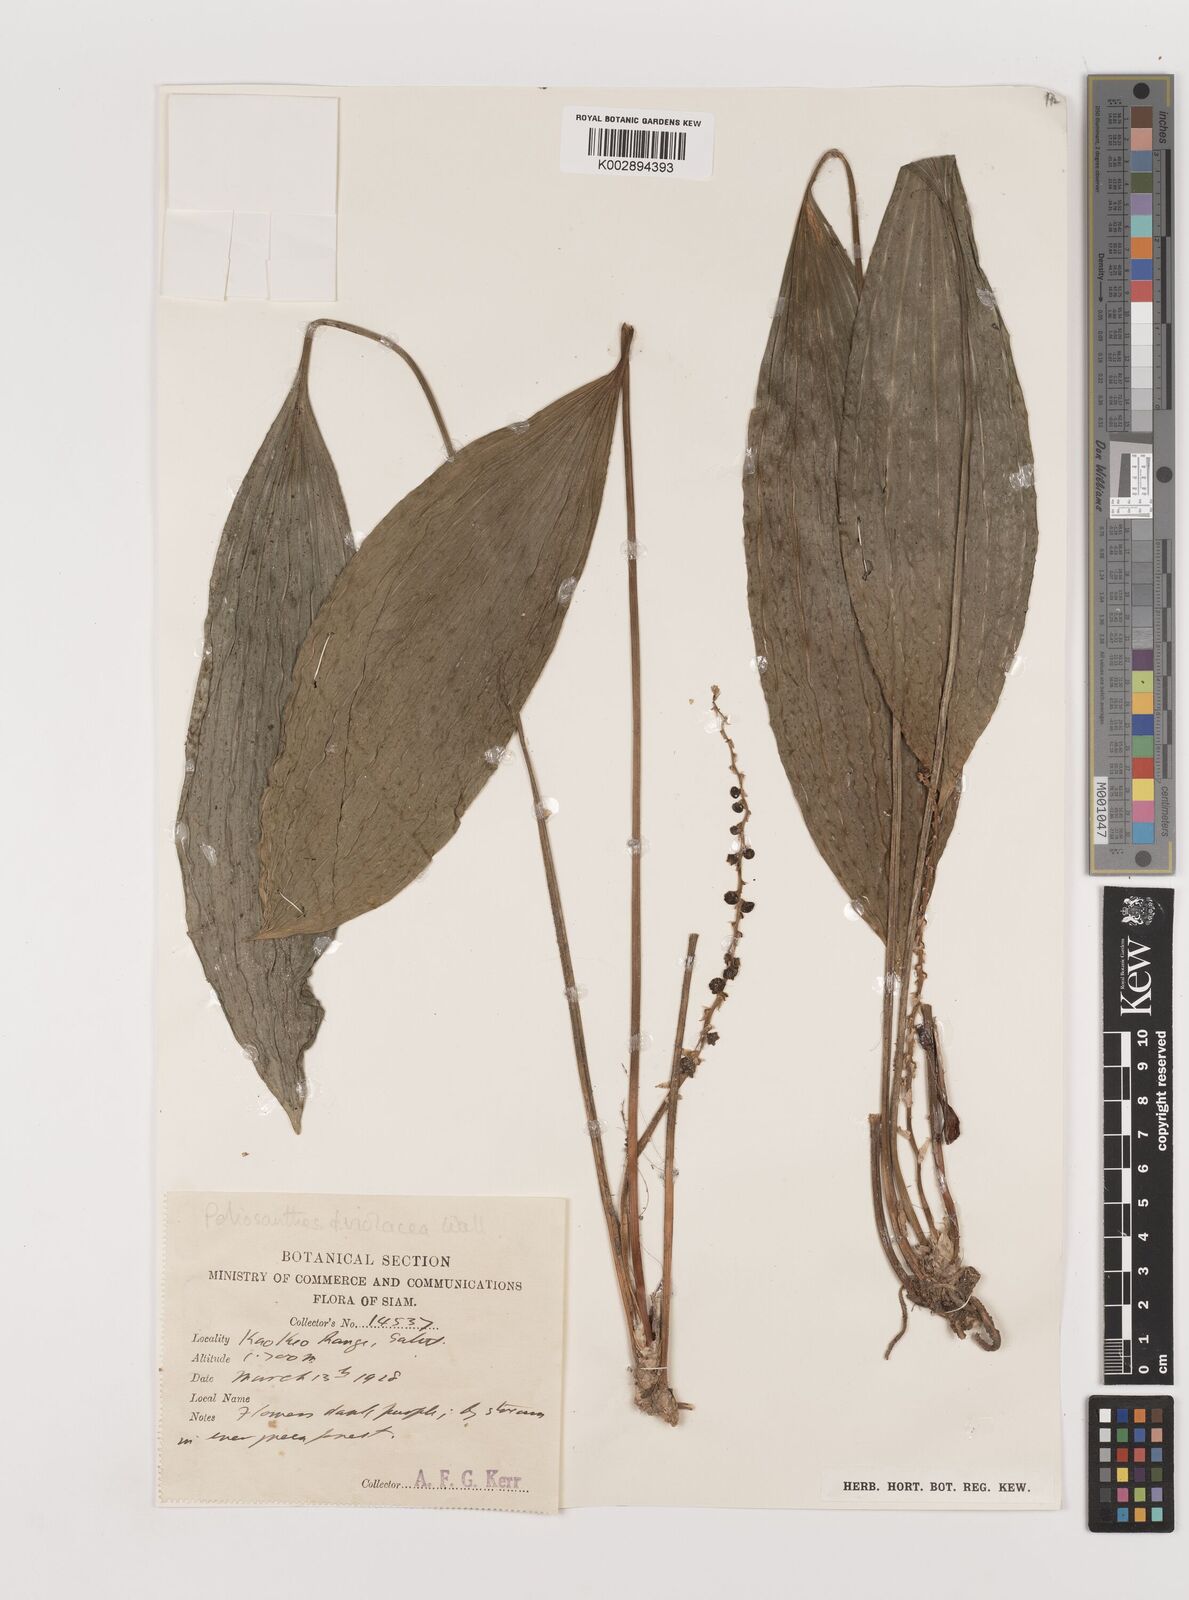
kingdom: Plantae
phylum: Tracheophyta
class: Liliopsida
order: Asparagales
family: Asparagaceae
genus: Peliosanthes
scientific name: Peliosanthes teta
